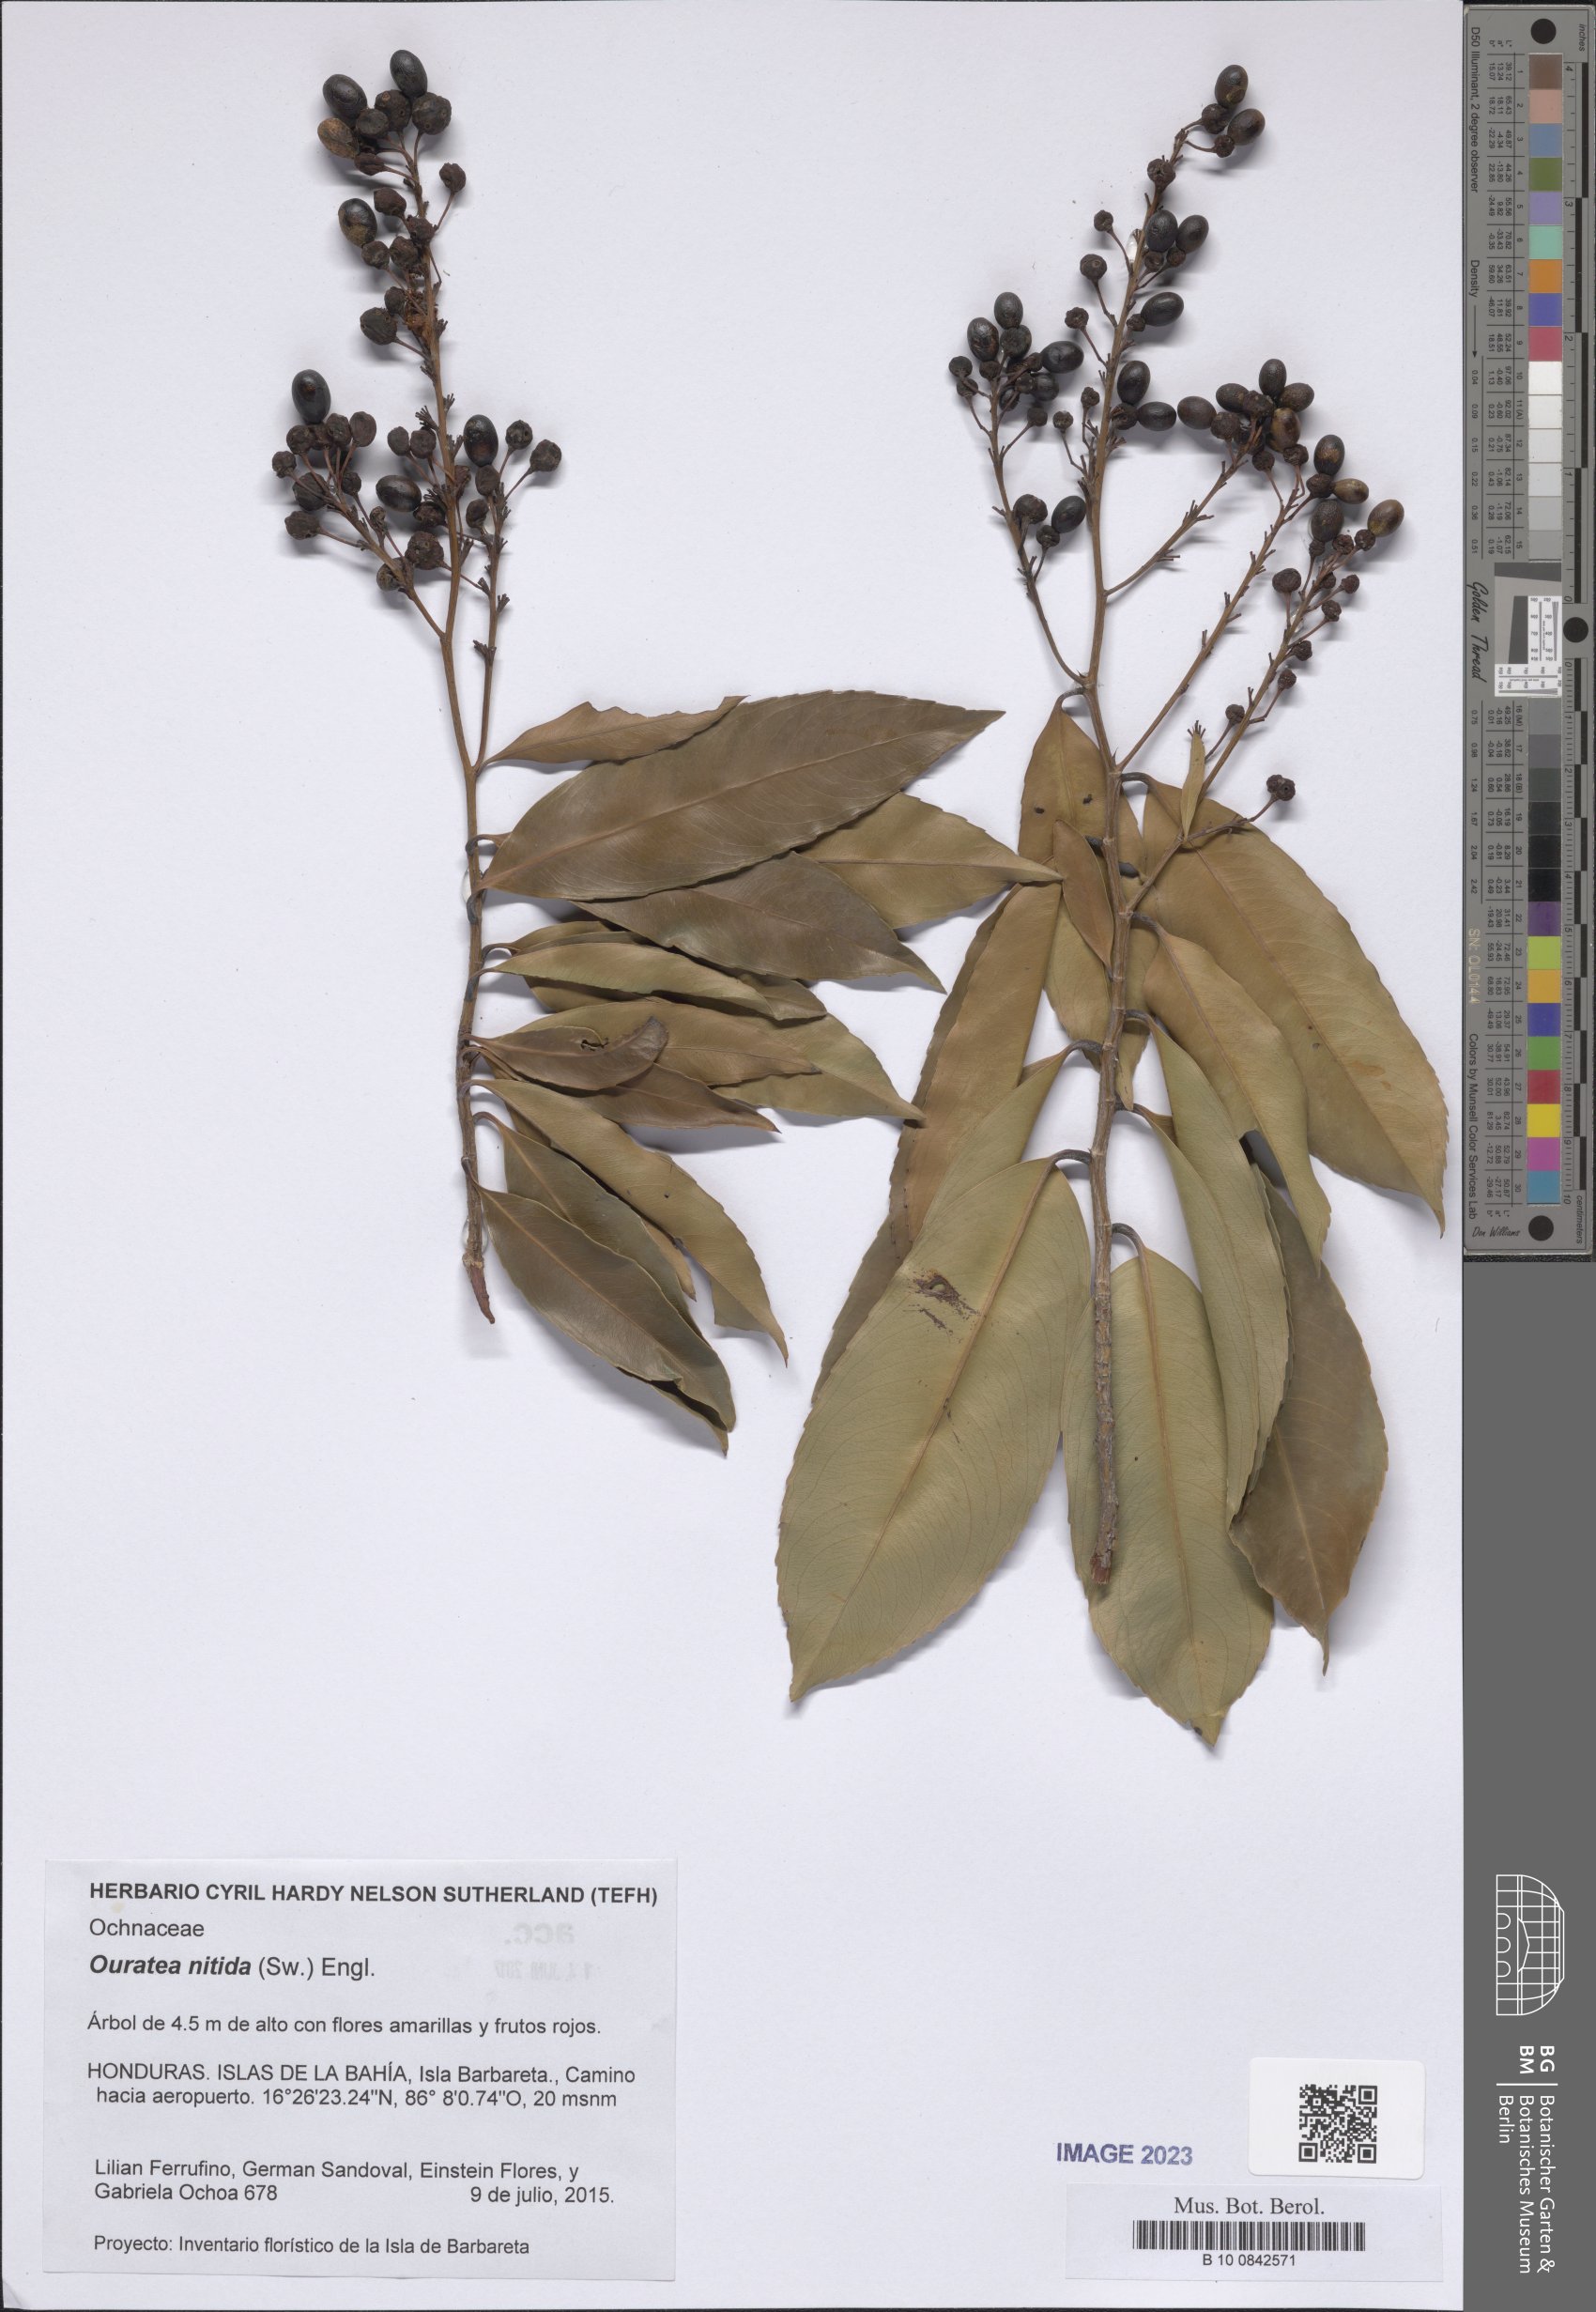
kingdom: Plantae
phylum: Tracheophyta
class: Magnoliopsida
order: Malpighiales
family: Ochnaceae
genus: Ouratea
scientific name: Ouratea nitida
